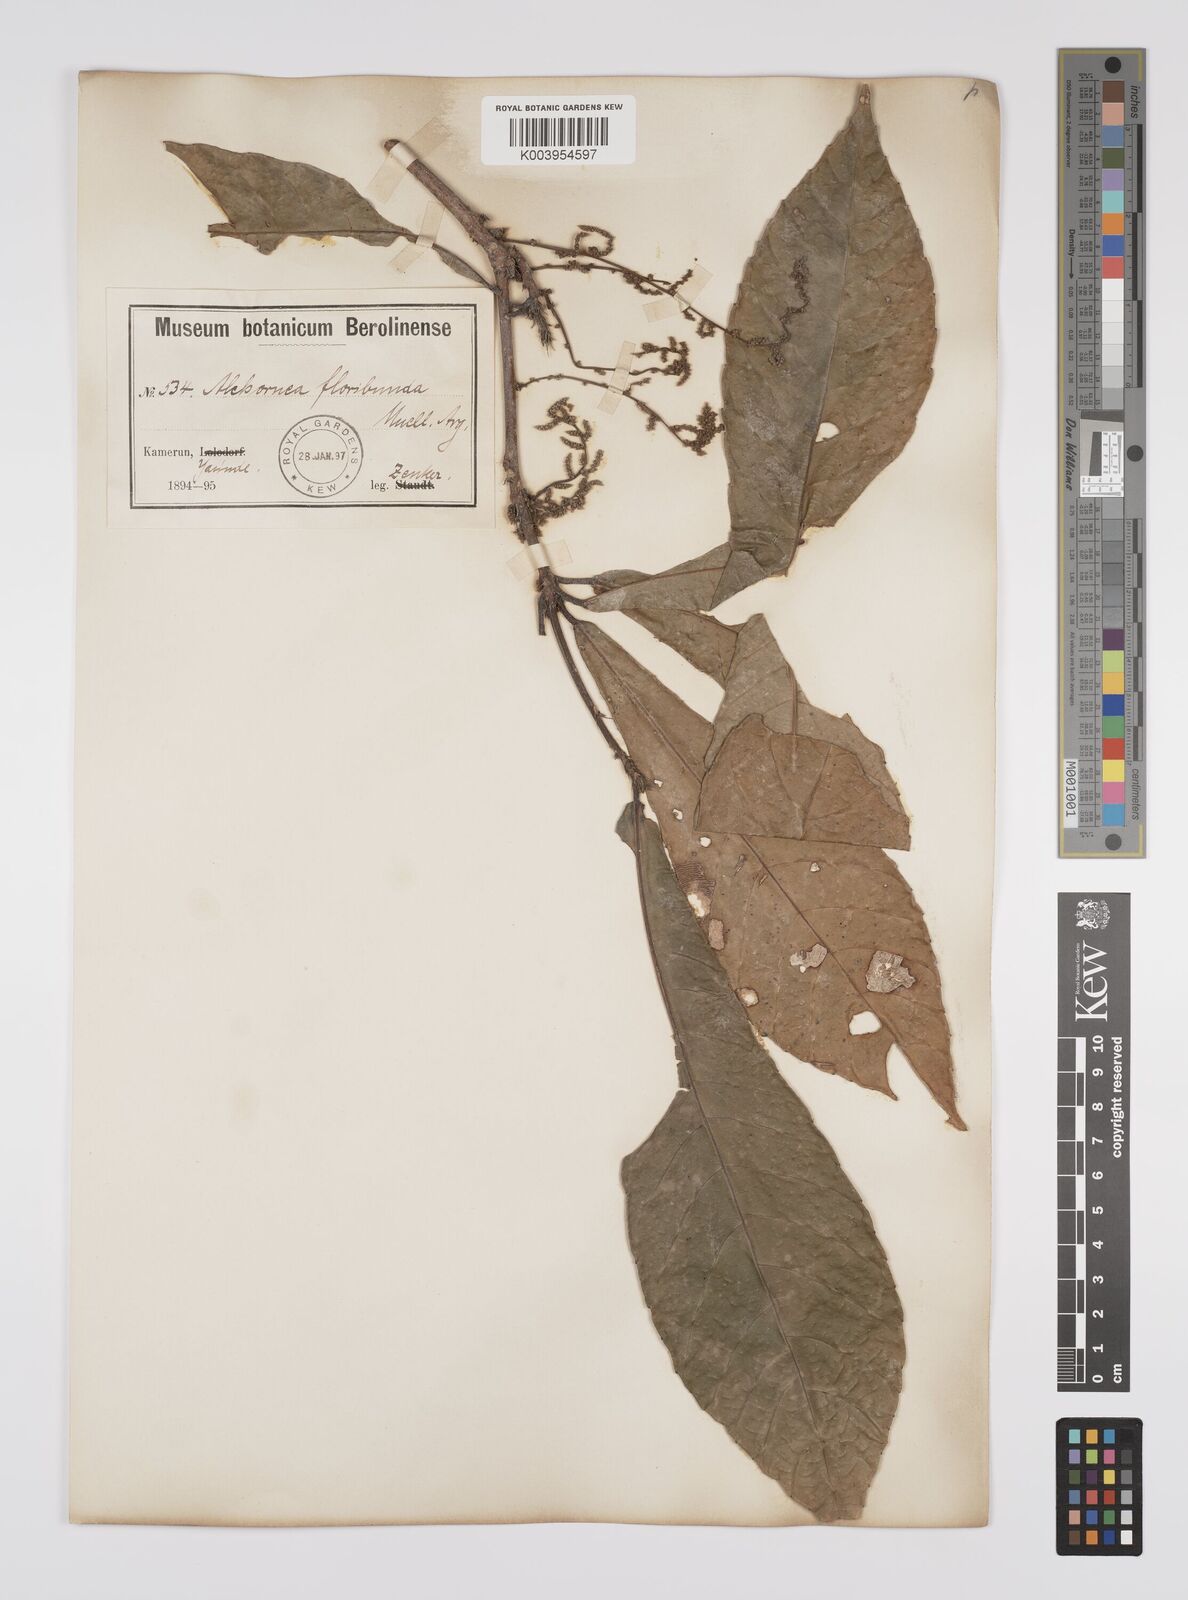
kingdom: Plantae
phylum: Tracheophyta
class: Magnoliopsida
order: Malpighiales
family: Euphorbiaceae
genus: Alchornea
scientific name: Alchornea floribunda
